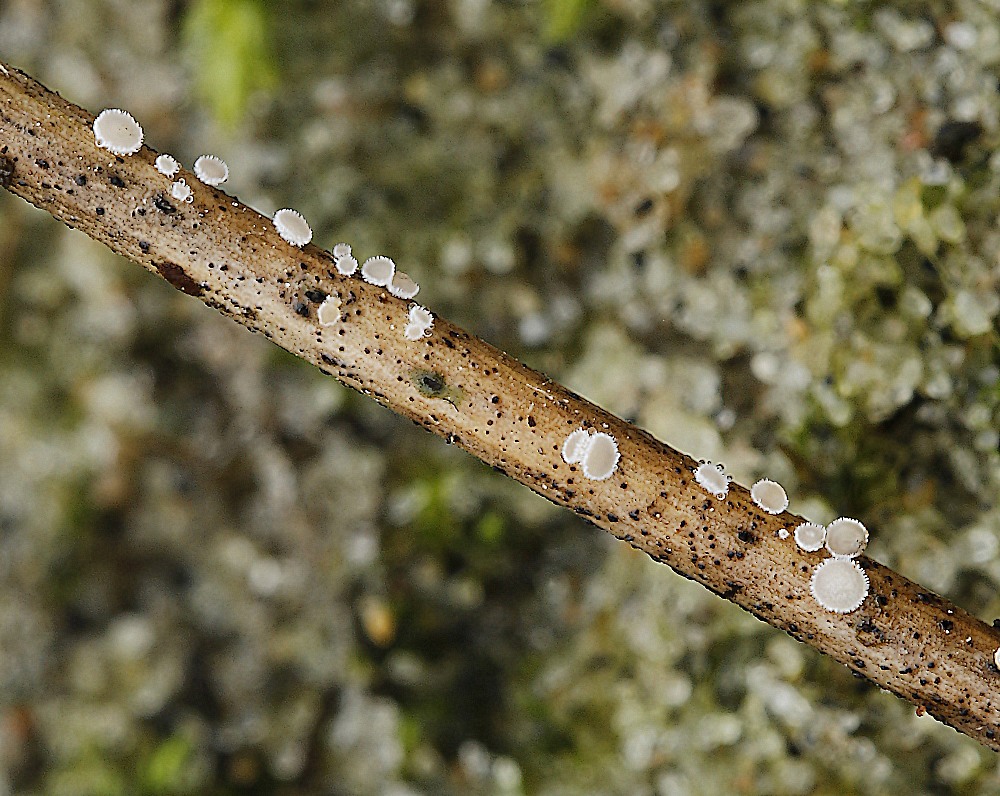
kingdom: Fungi
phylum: Ascomycota
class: Leotiomycetes
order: Helotiales
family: Lachnaceae
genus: Brunnipila
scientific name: Brunnipila palearum
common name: brunhåret frynseskive
